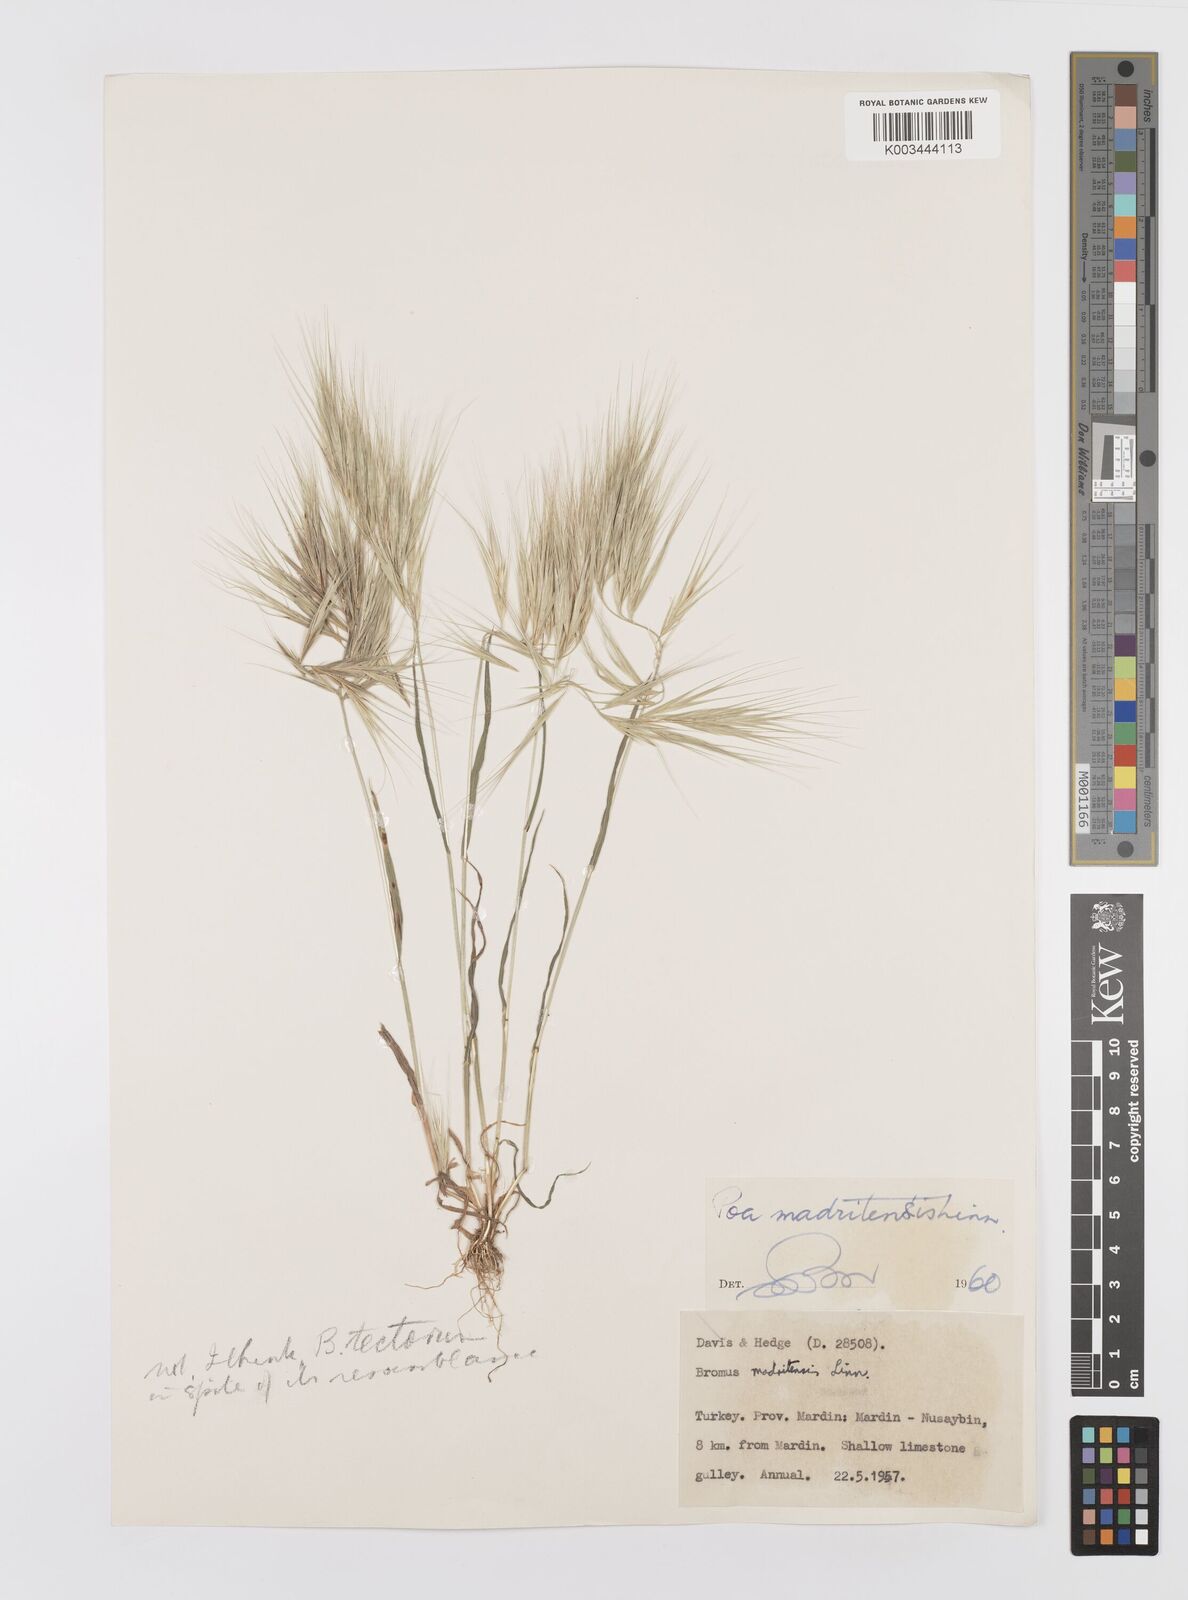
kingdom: Plantae
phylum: Tracheophyta
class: Liliopsida
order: Poales
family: Poaceae
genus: Bromus
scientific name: Bromus madritensis
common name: Compact brome
